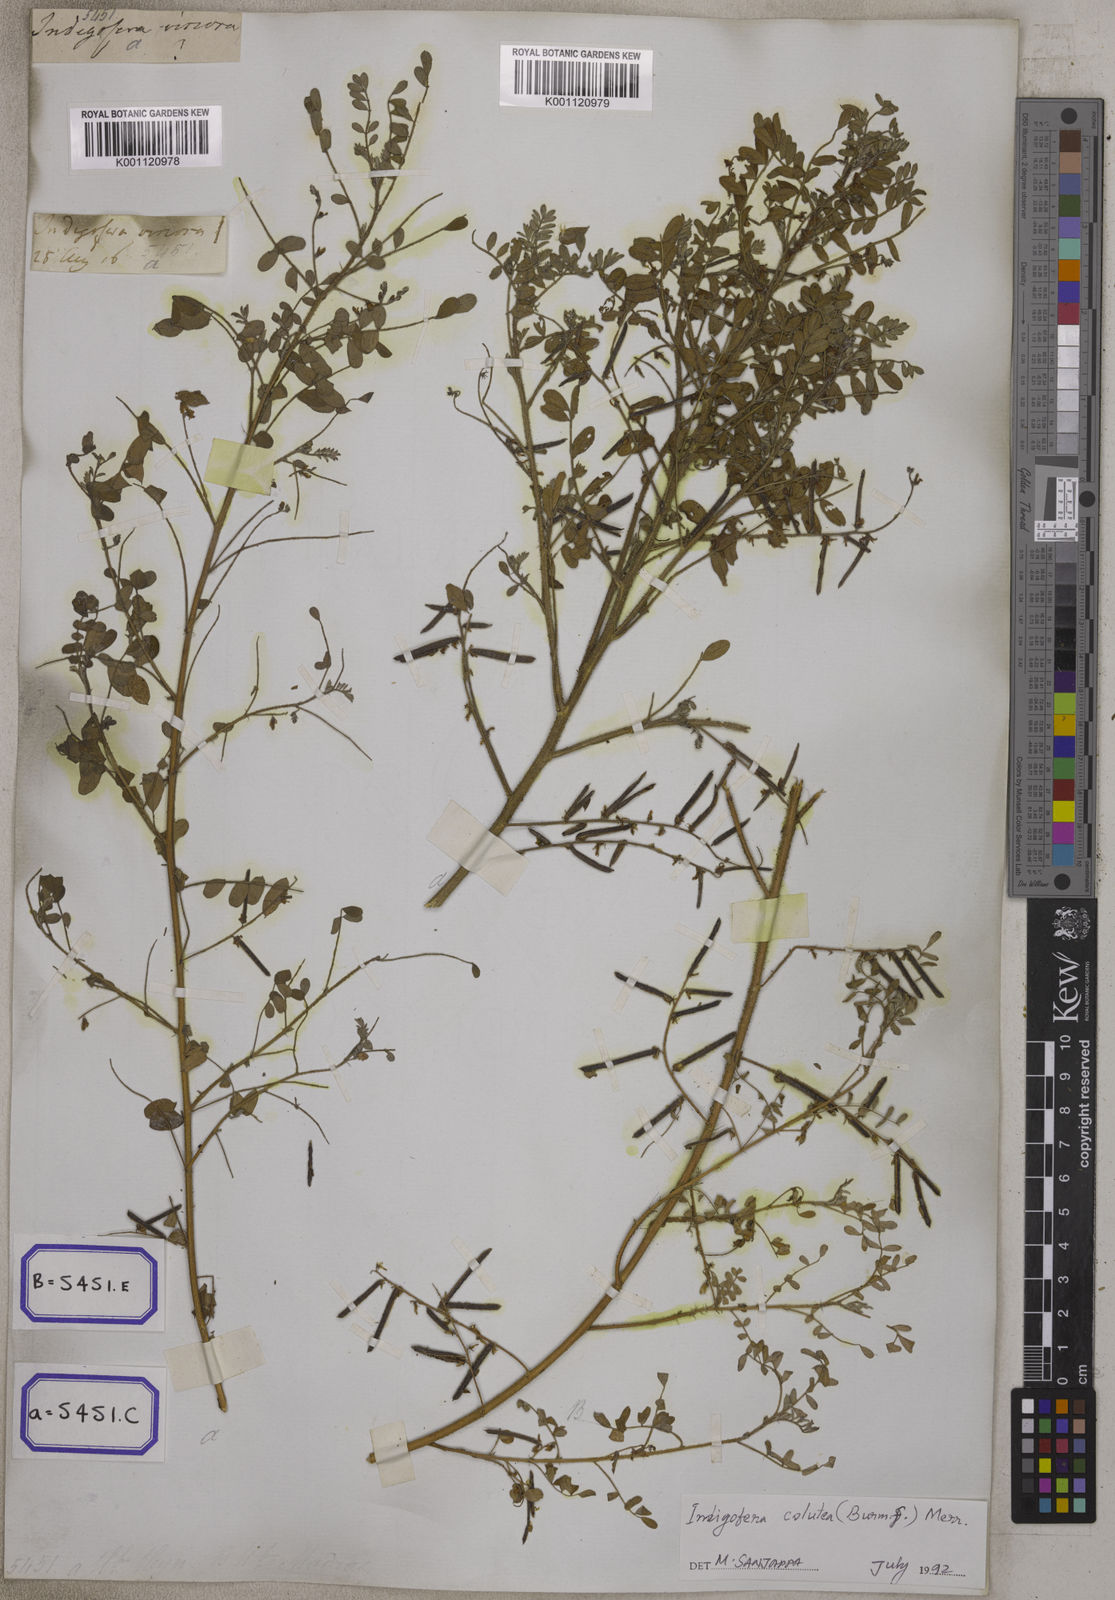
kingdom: Plantae
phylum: Tracheophyta
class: Magnoliopsida
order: Fabales
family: Fabaceae
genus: Indigofera
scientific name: Indigofera colutea
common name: Rusty indigo
